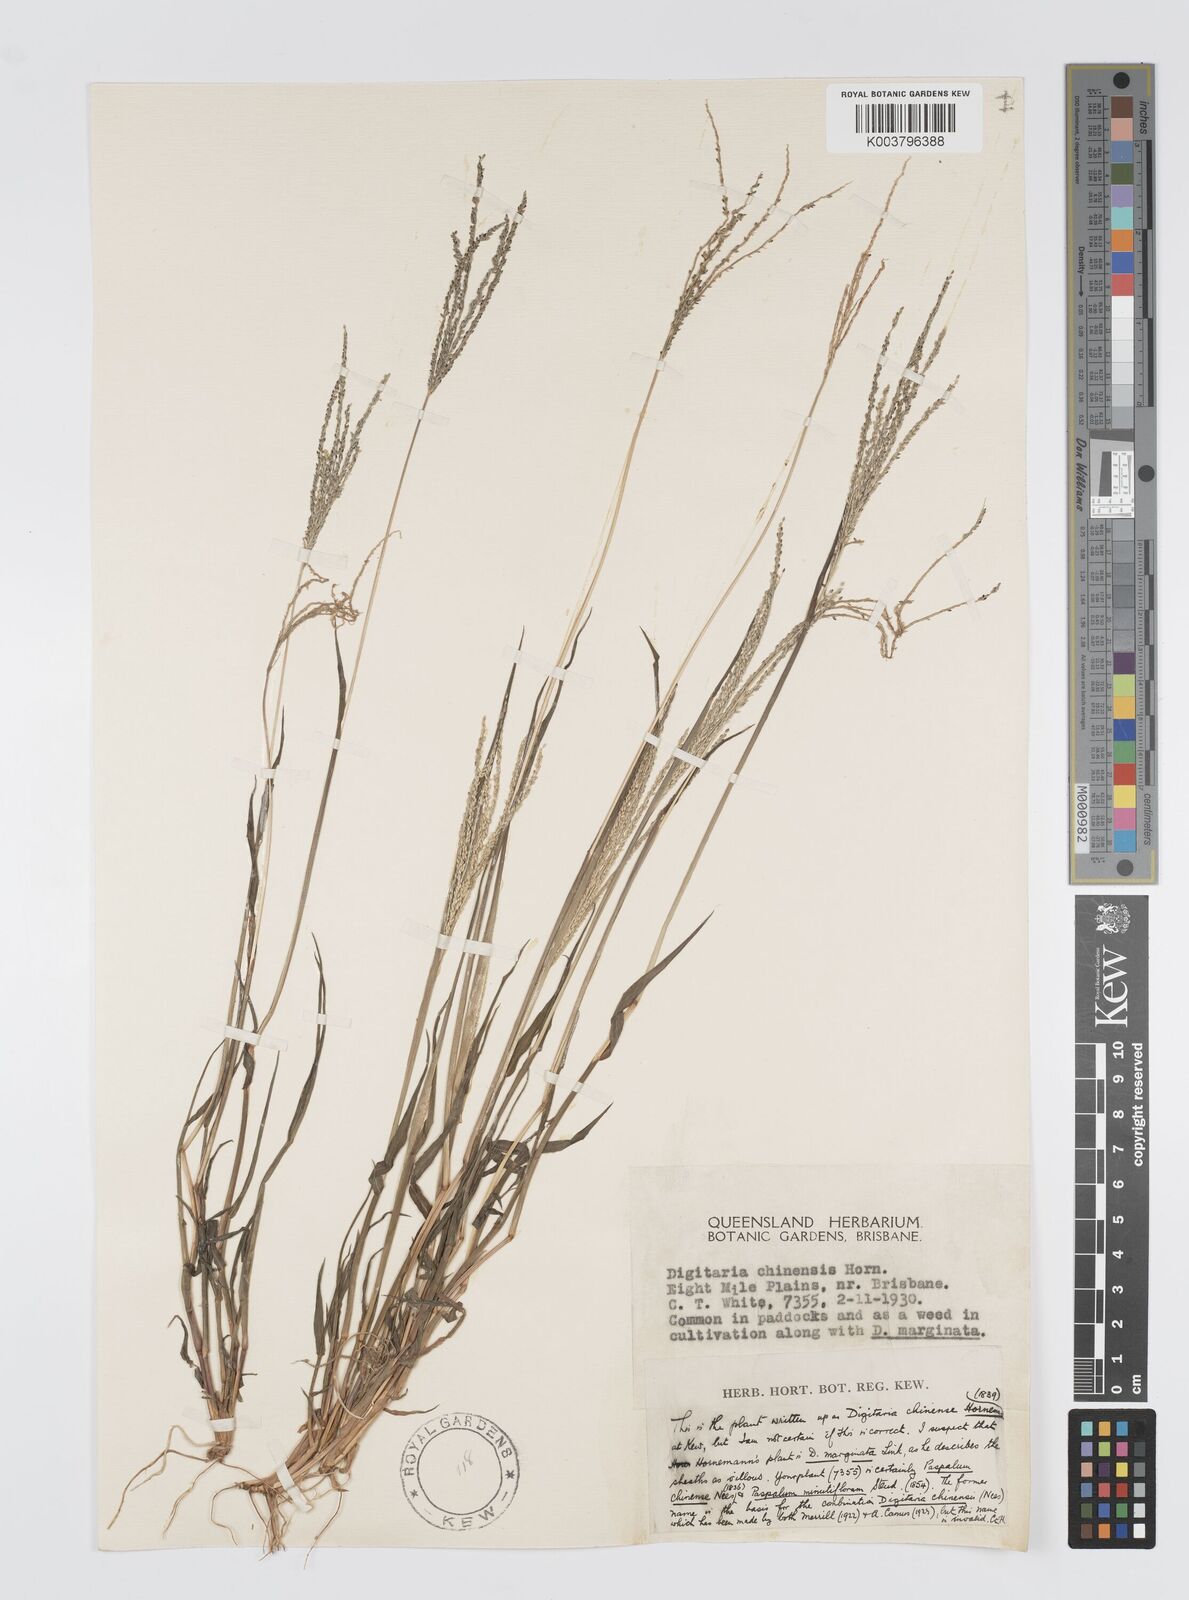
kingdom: Plantae
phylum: Tracheophyta
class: Liliopsida
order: Poales
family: Poaceae
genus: Digitaria
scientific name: Digitaria violascens
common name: Violet crabgrass
